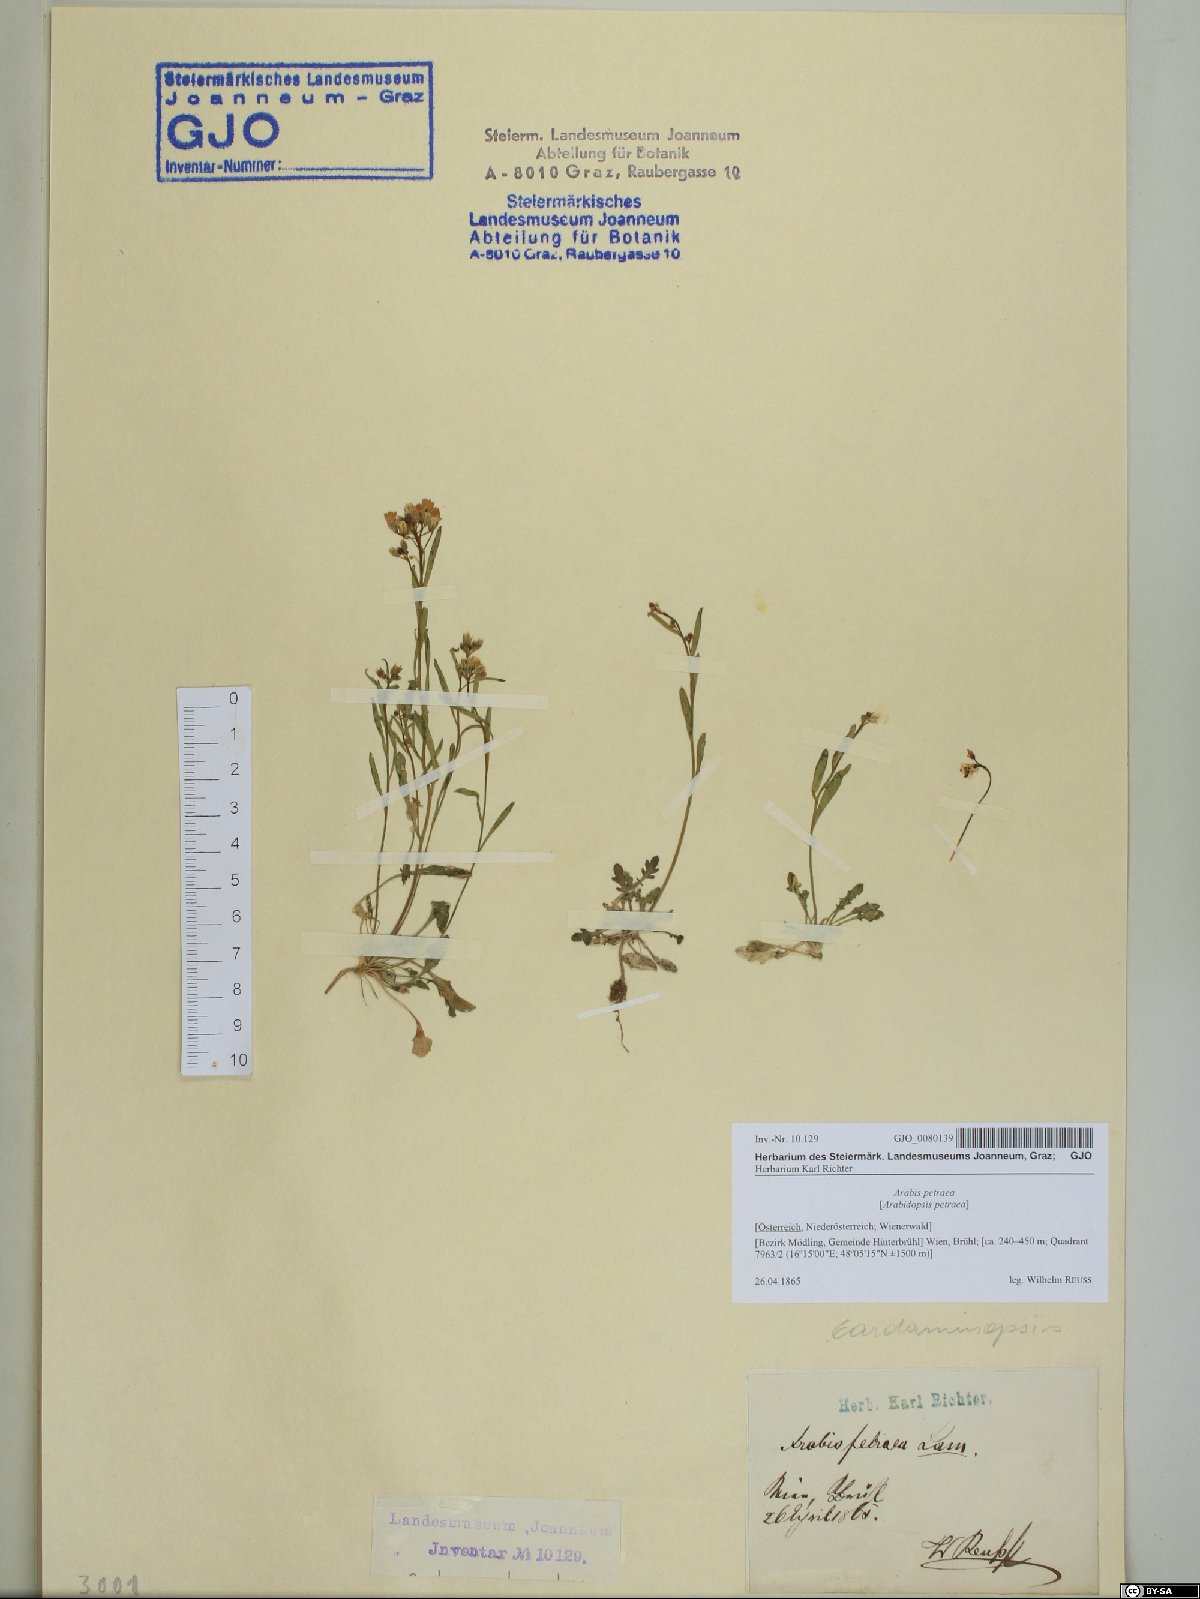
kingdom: Plantae
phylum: Tracheophyta
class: Magnoliopsida
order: Brassicales
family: Brassicaceae
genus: Arabidopsis
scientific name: Arabidopsis lyrata
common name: Lyrate rockcress
